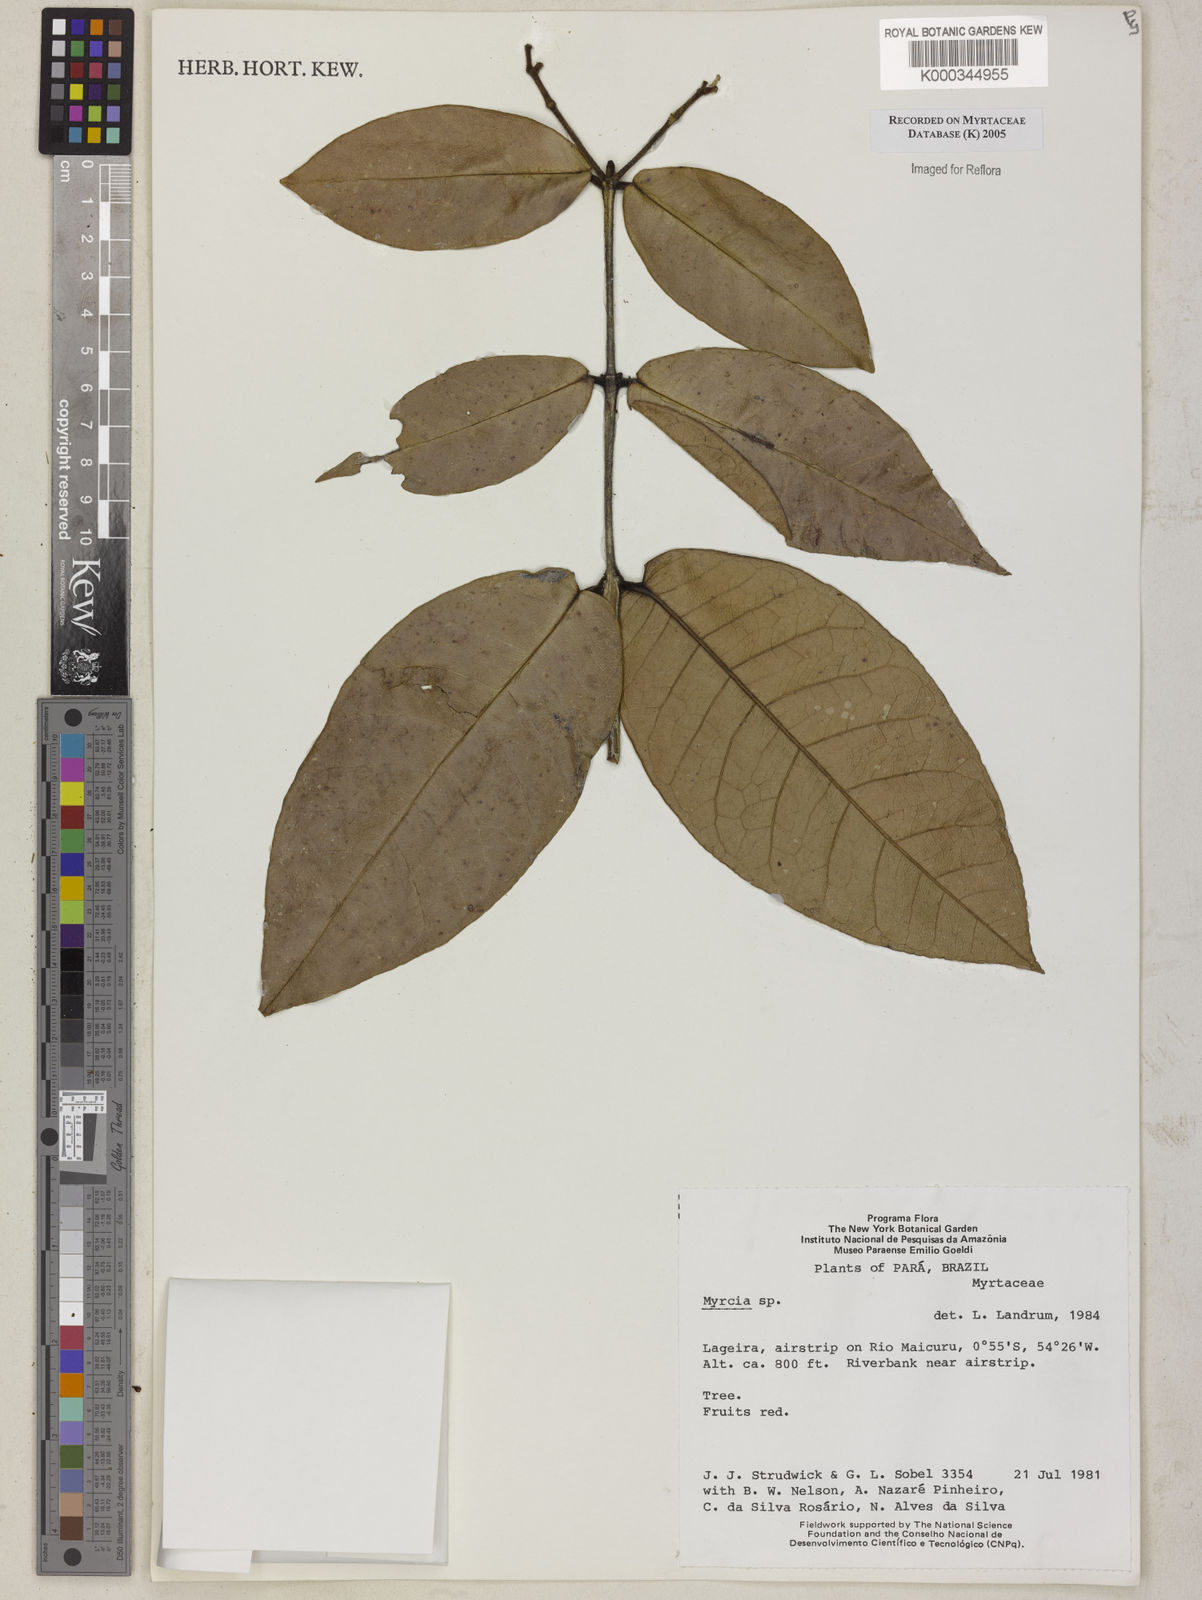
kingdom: Plantae
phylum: Tracheophyta
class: Magnoliopsida
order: Myrtales
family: Myrtaceae
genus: Myrcia
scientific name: Myrcia
